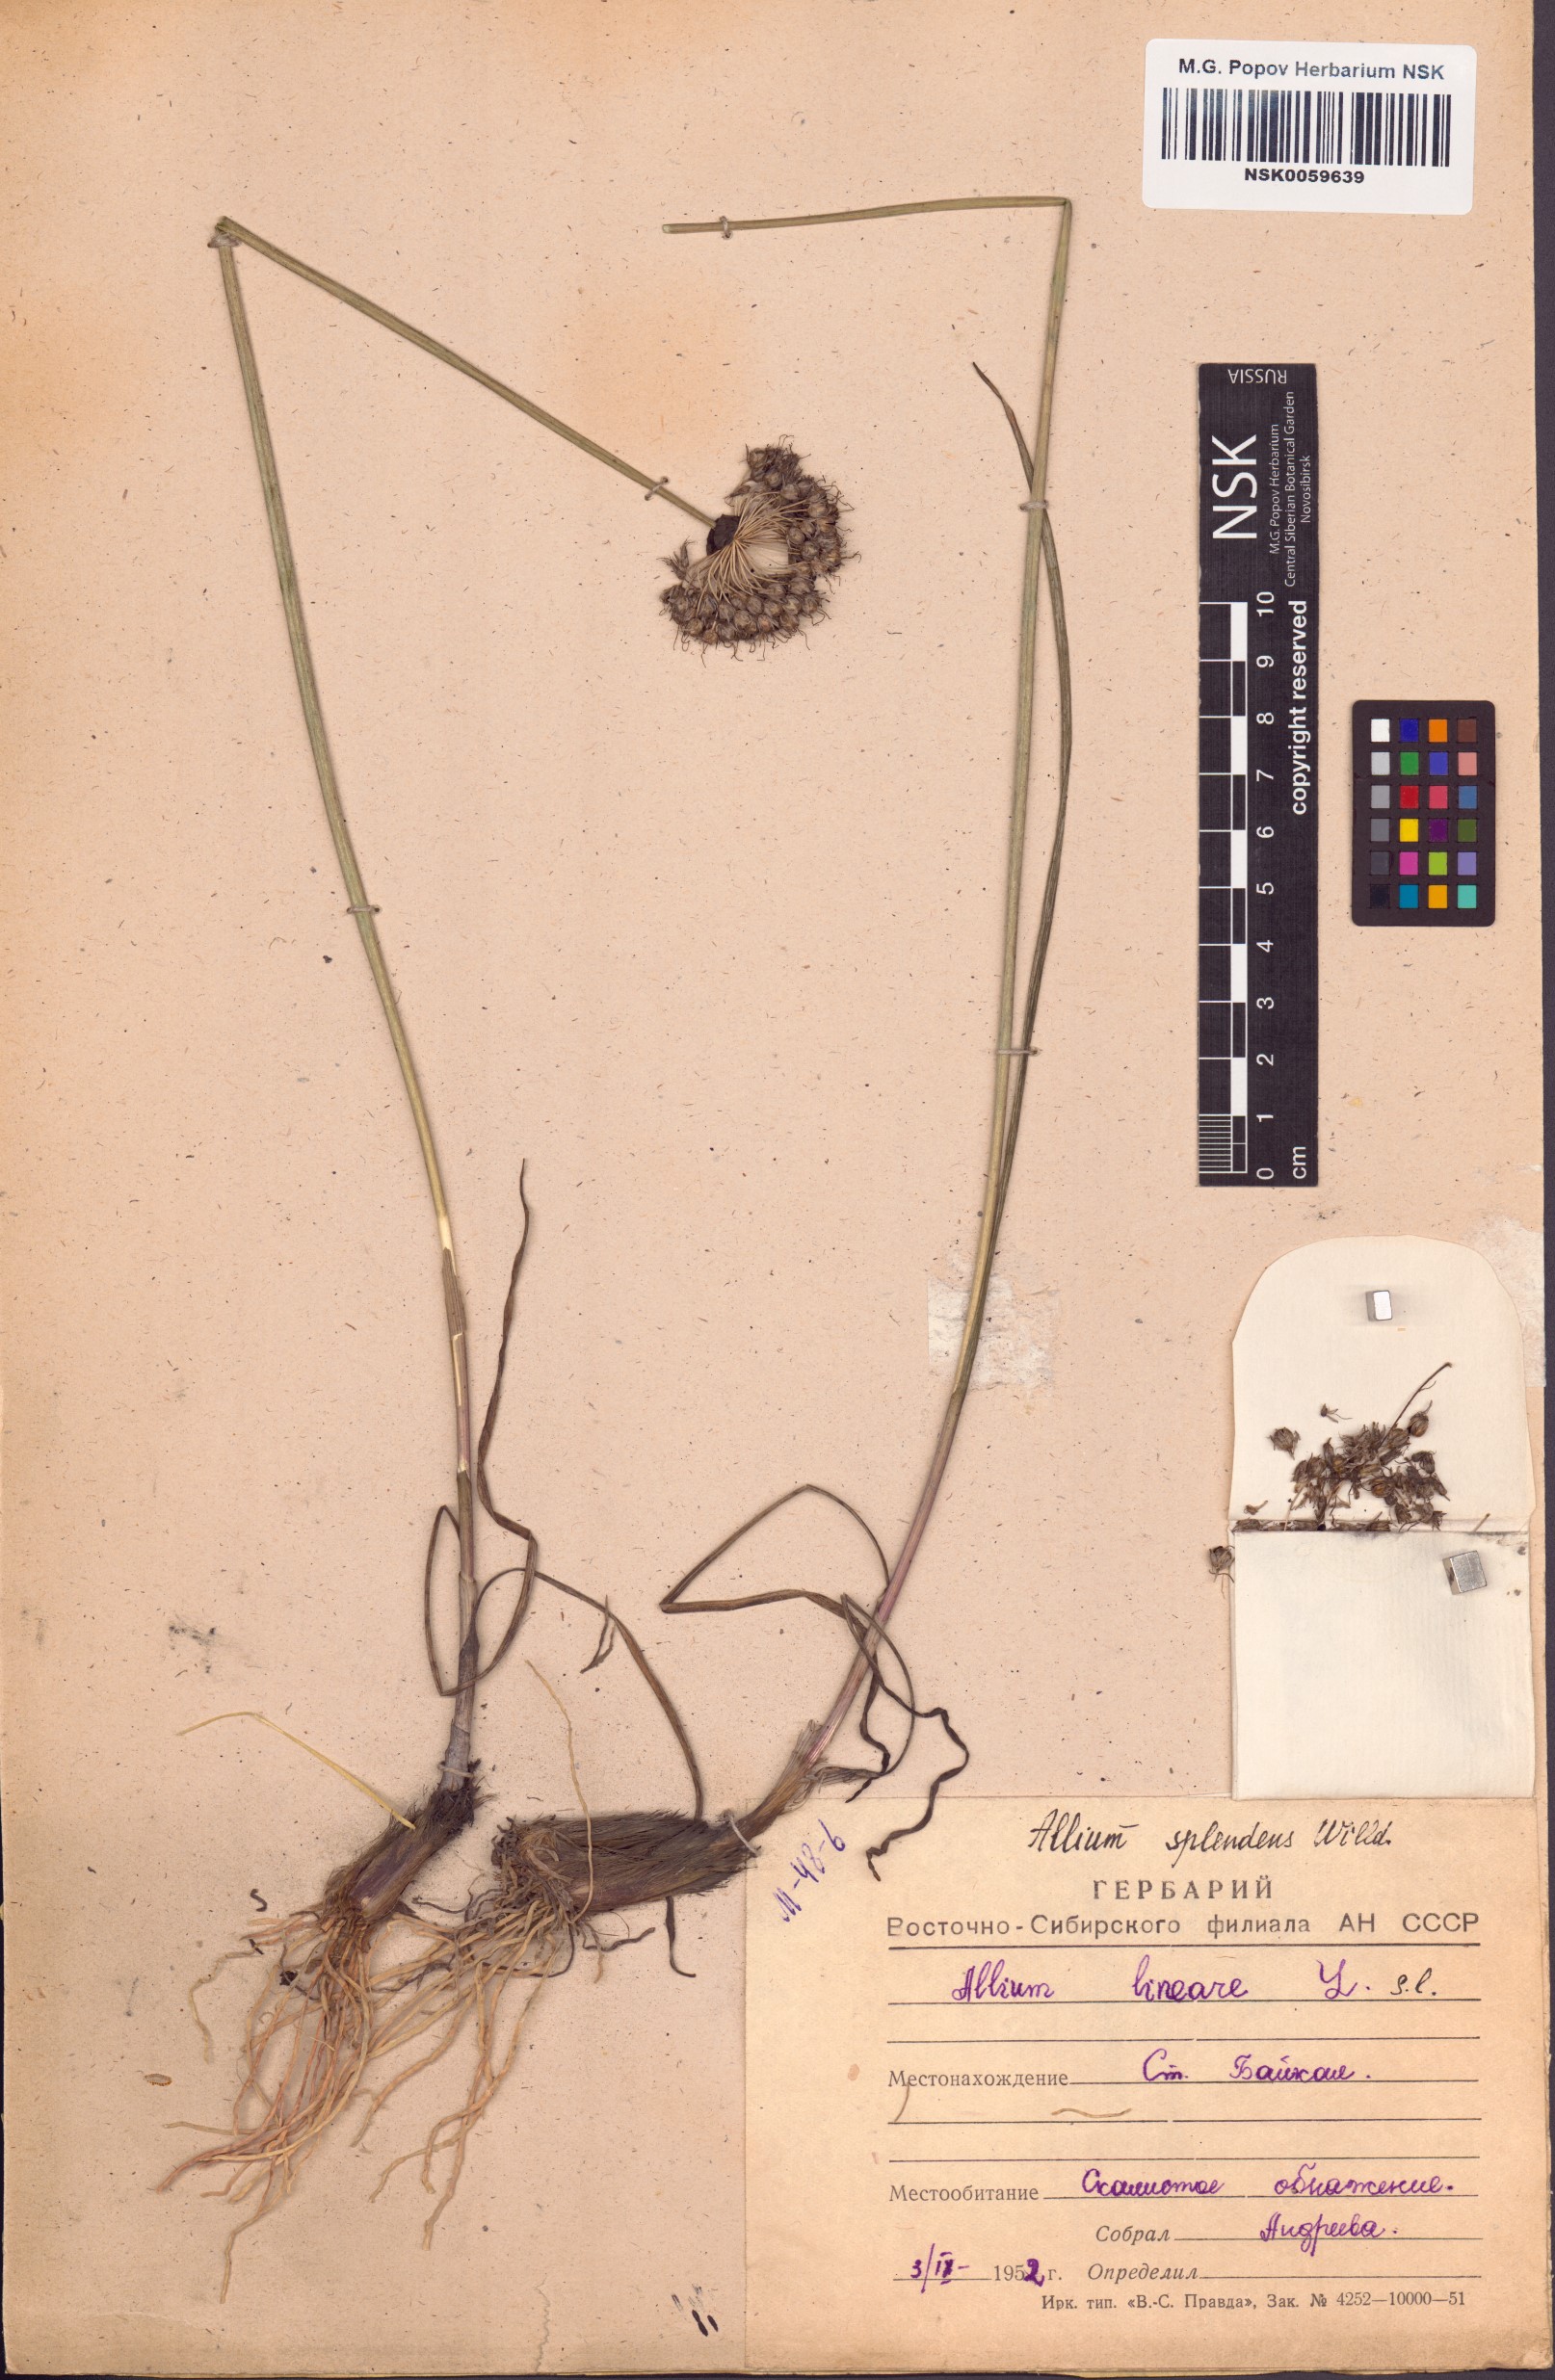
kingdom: Plantae
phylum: Tracheophyta
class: Liliopsida
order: Asparagales
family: Amaryllidaceae
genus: Allium
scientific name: Allium splendens
